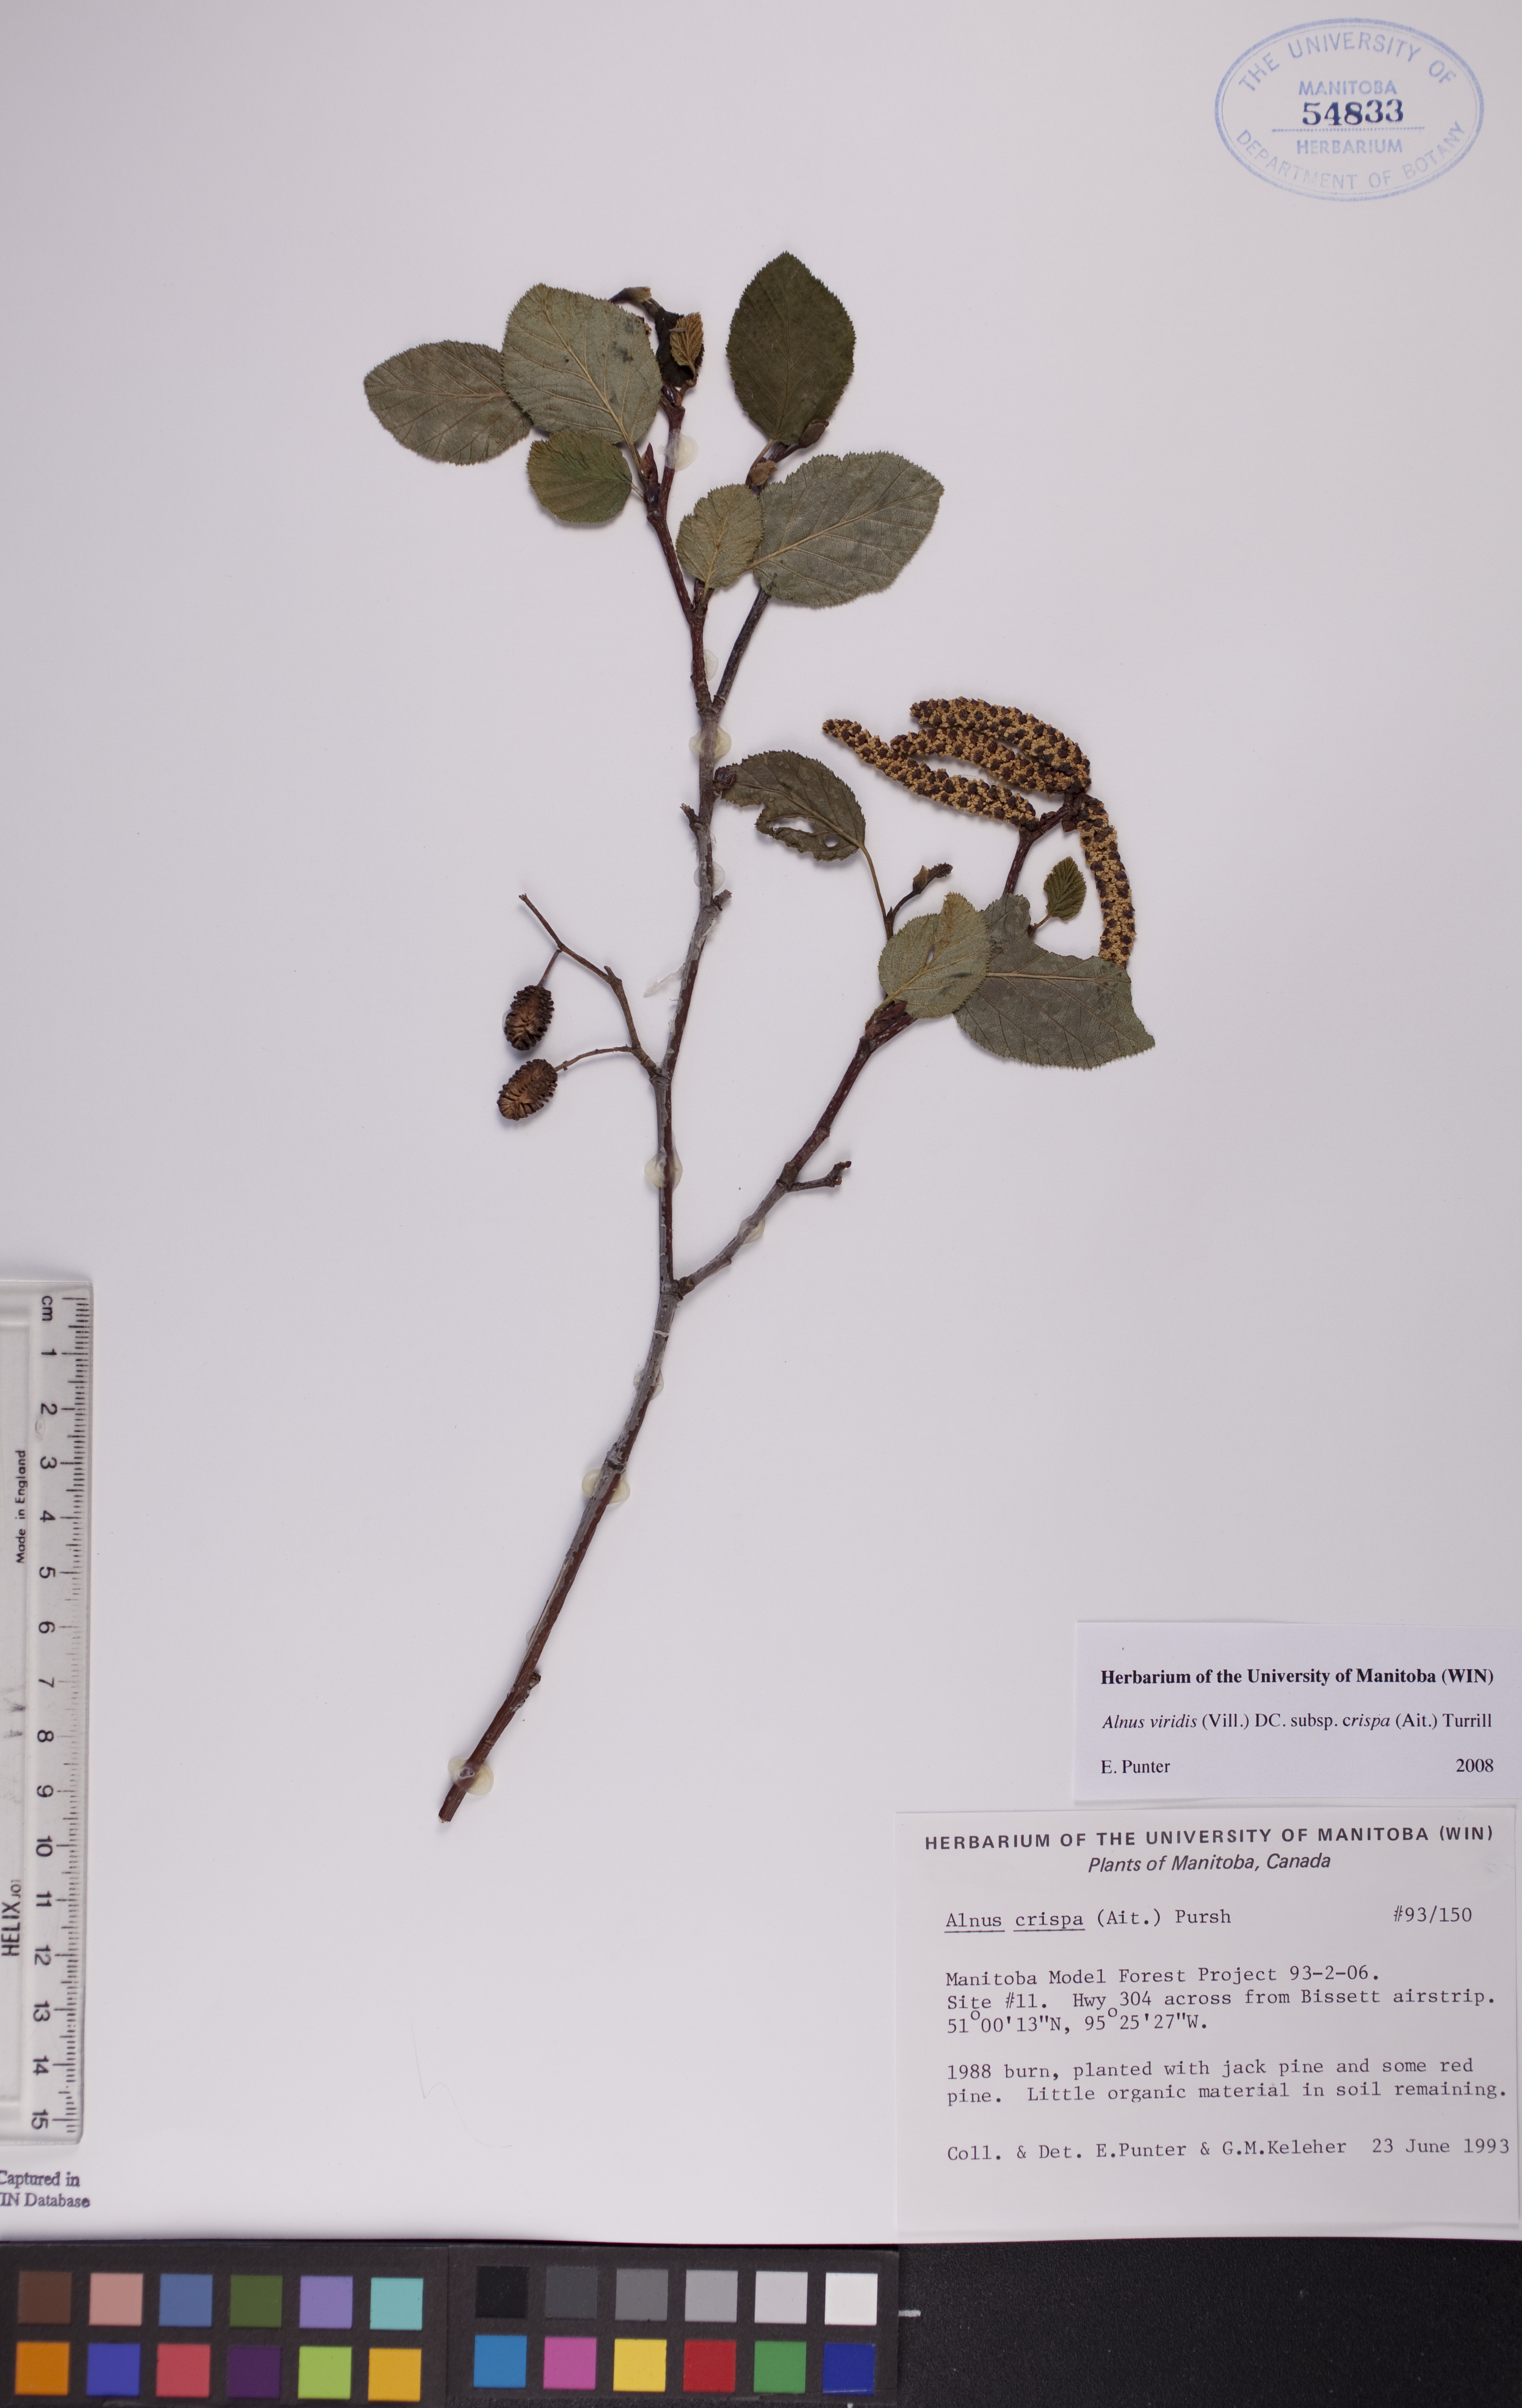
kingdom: Plantae
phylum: Tracheophyta
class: Magnoliopsida
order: Fagales
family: Betulaceae
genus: Alnus
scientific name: Alnus alnobetula
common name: Green alder
